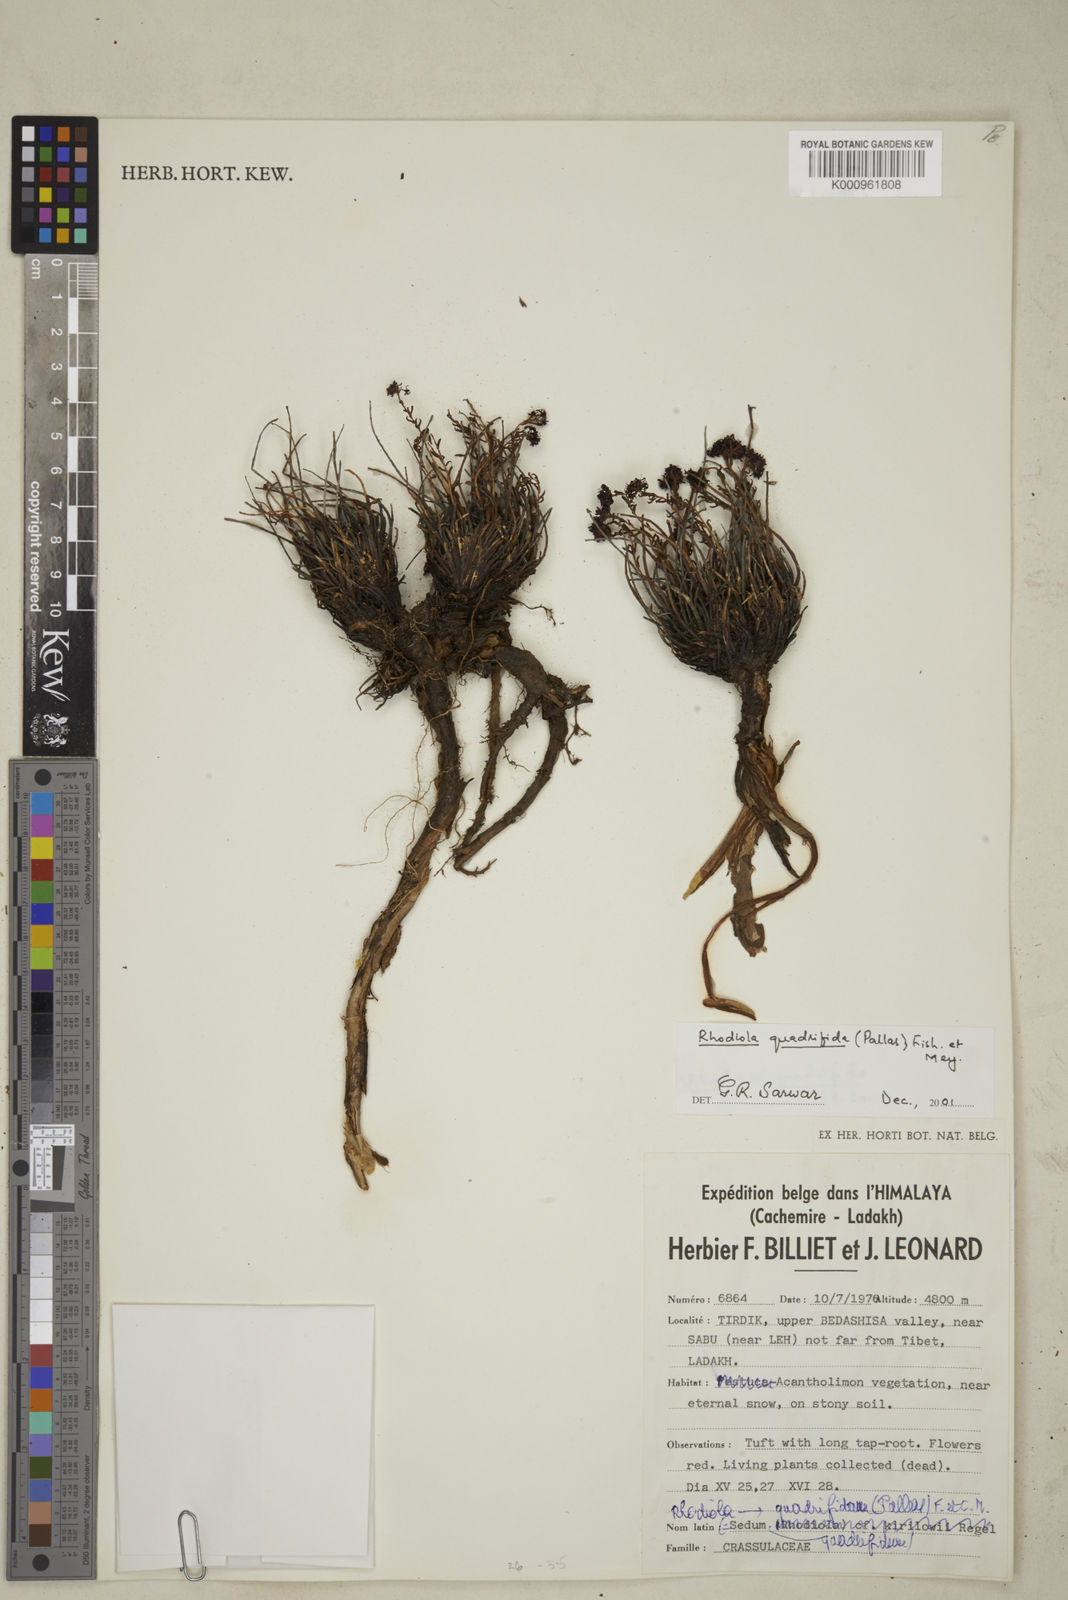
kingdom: Plantae
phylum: Tracheophyta
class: Magnoliopsida
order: Saxifragales
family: Crassulaceae
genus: Aeonium
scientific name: Aeonium
